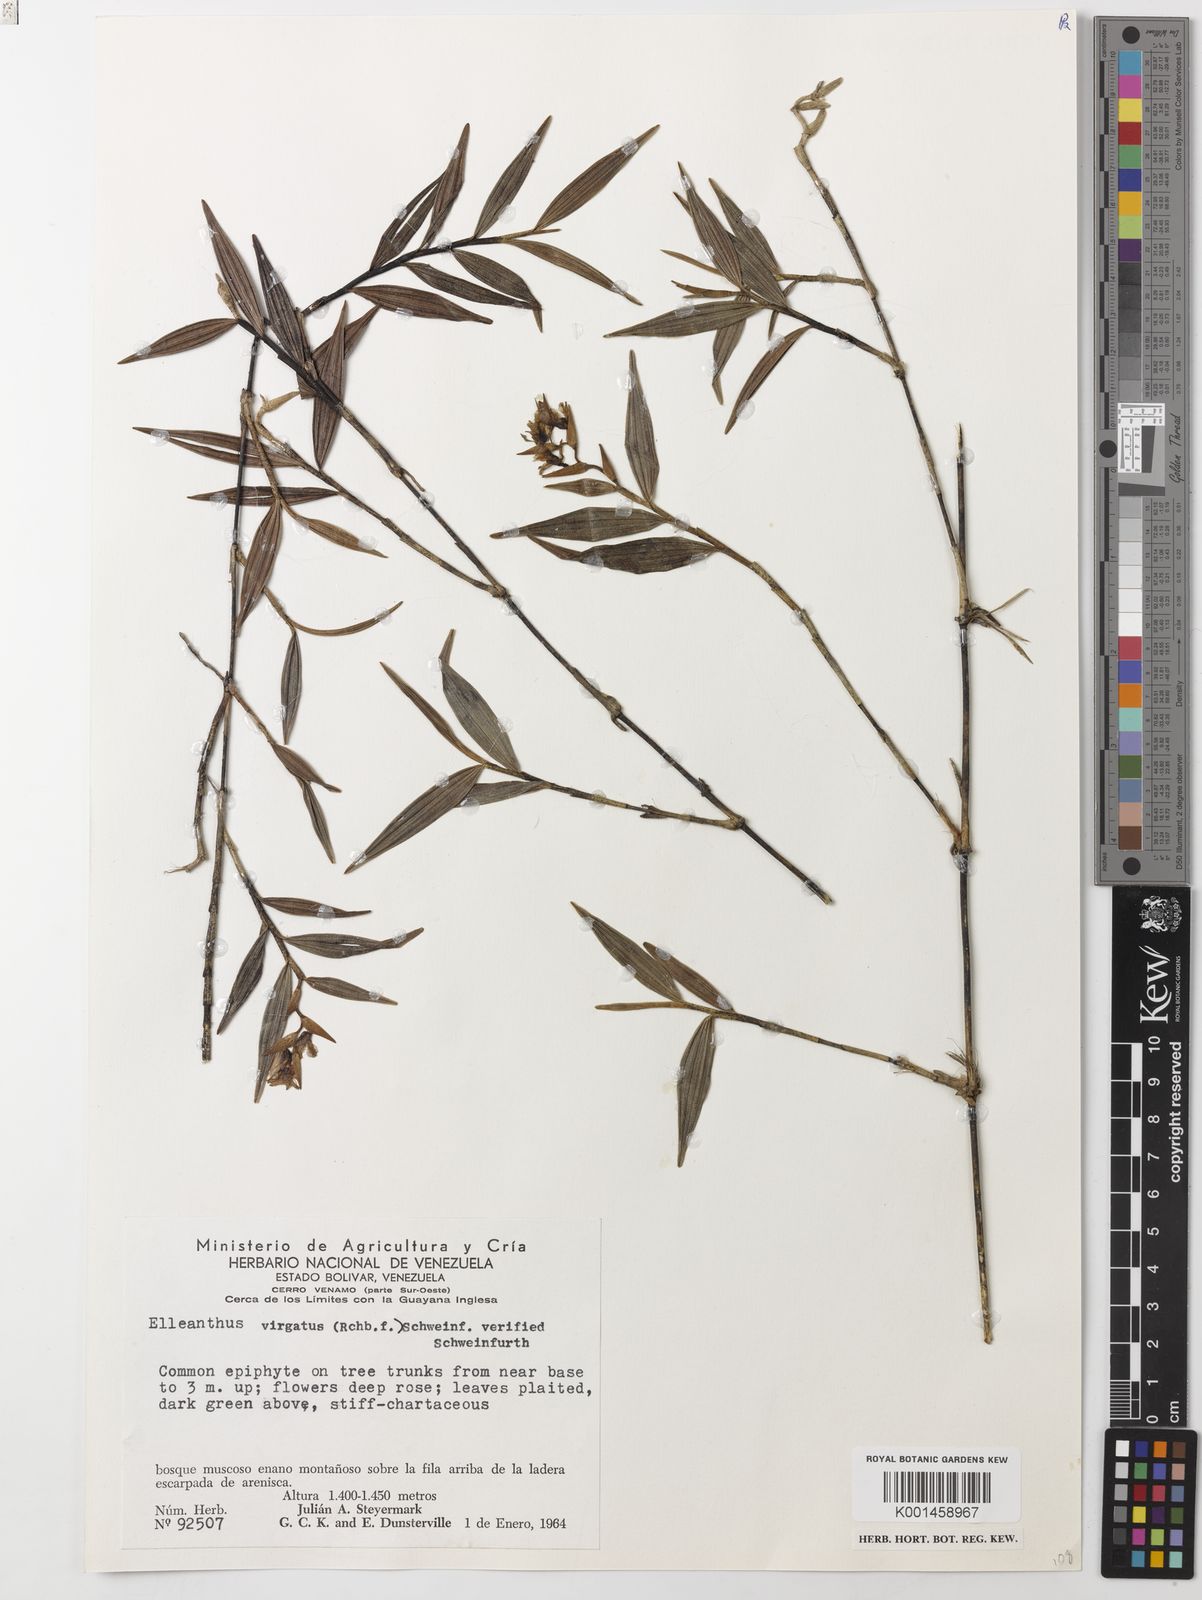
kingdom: Plantae
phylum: Tracheophyta
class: Liliopsida
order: Asparagales
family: Orchidaceae
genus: Elleanthus
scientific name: Elleanthus virgatus
